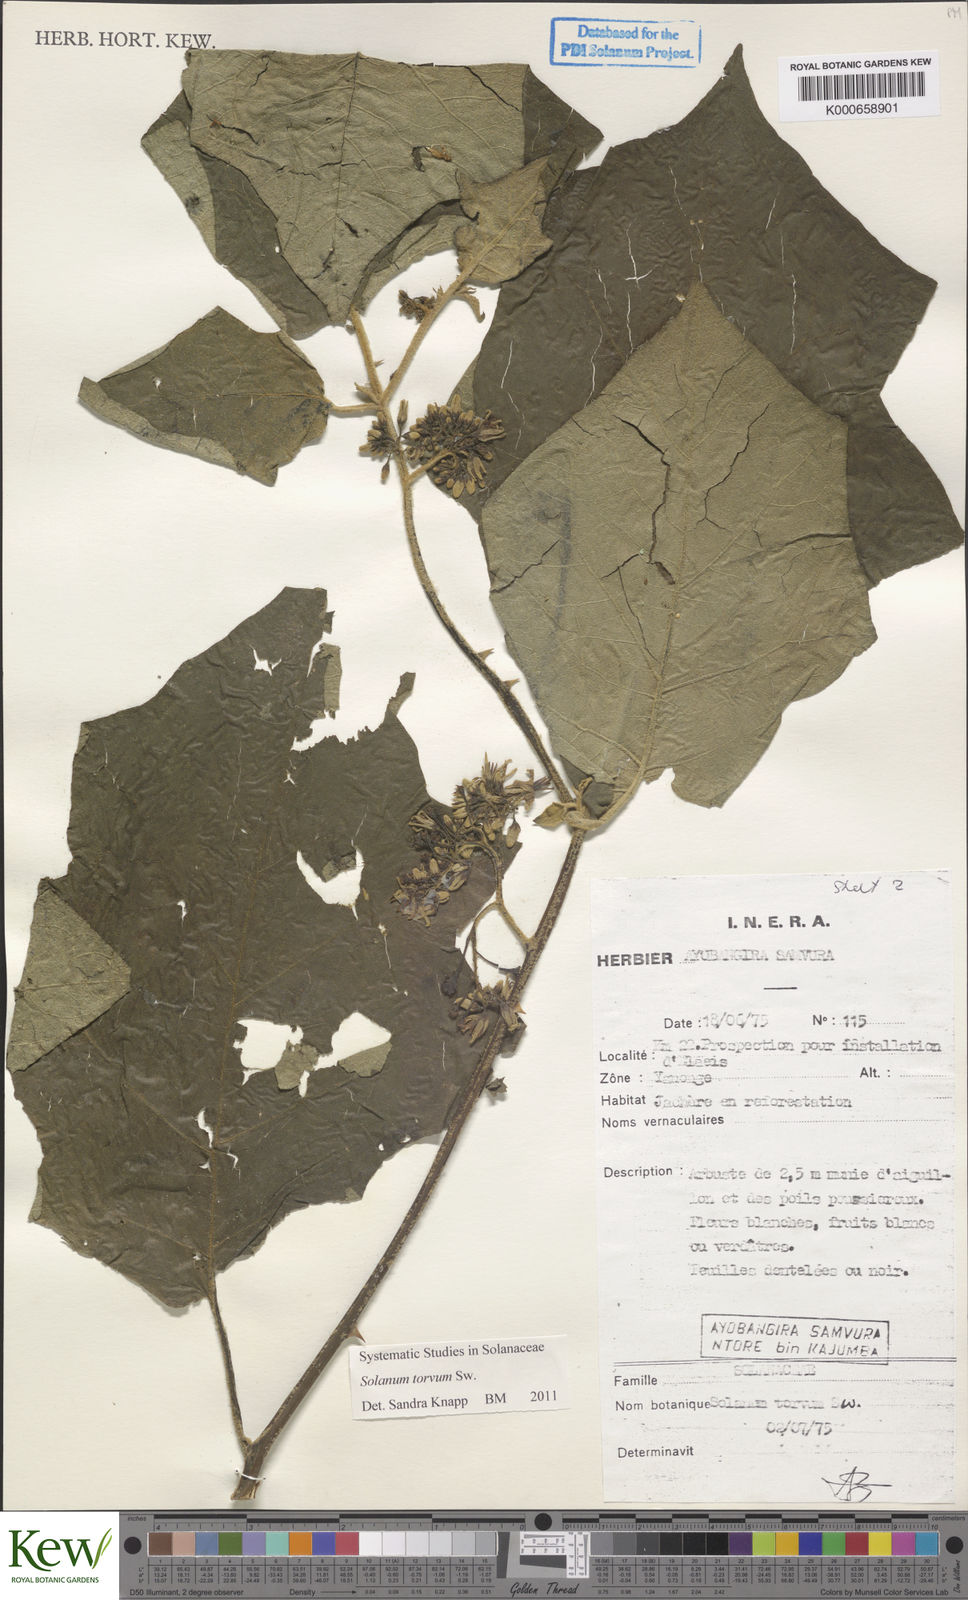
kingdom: Plantae
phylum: Tracheophyta
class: Magnoliopsida
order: Solanales
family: Solanaceae
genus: Solanum
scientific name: Solanum torvum
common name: Turkey berry
